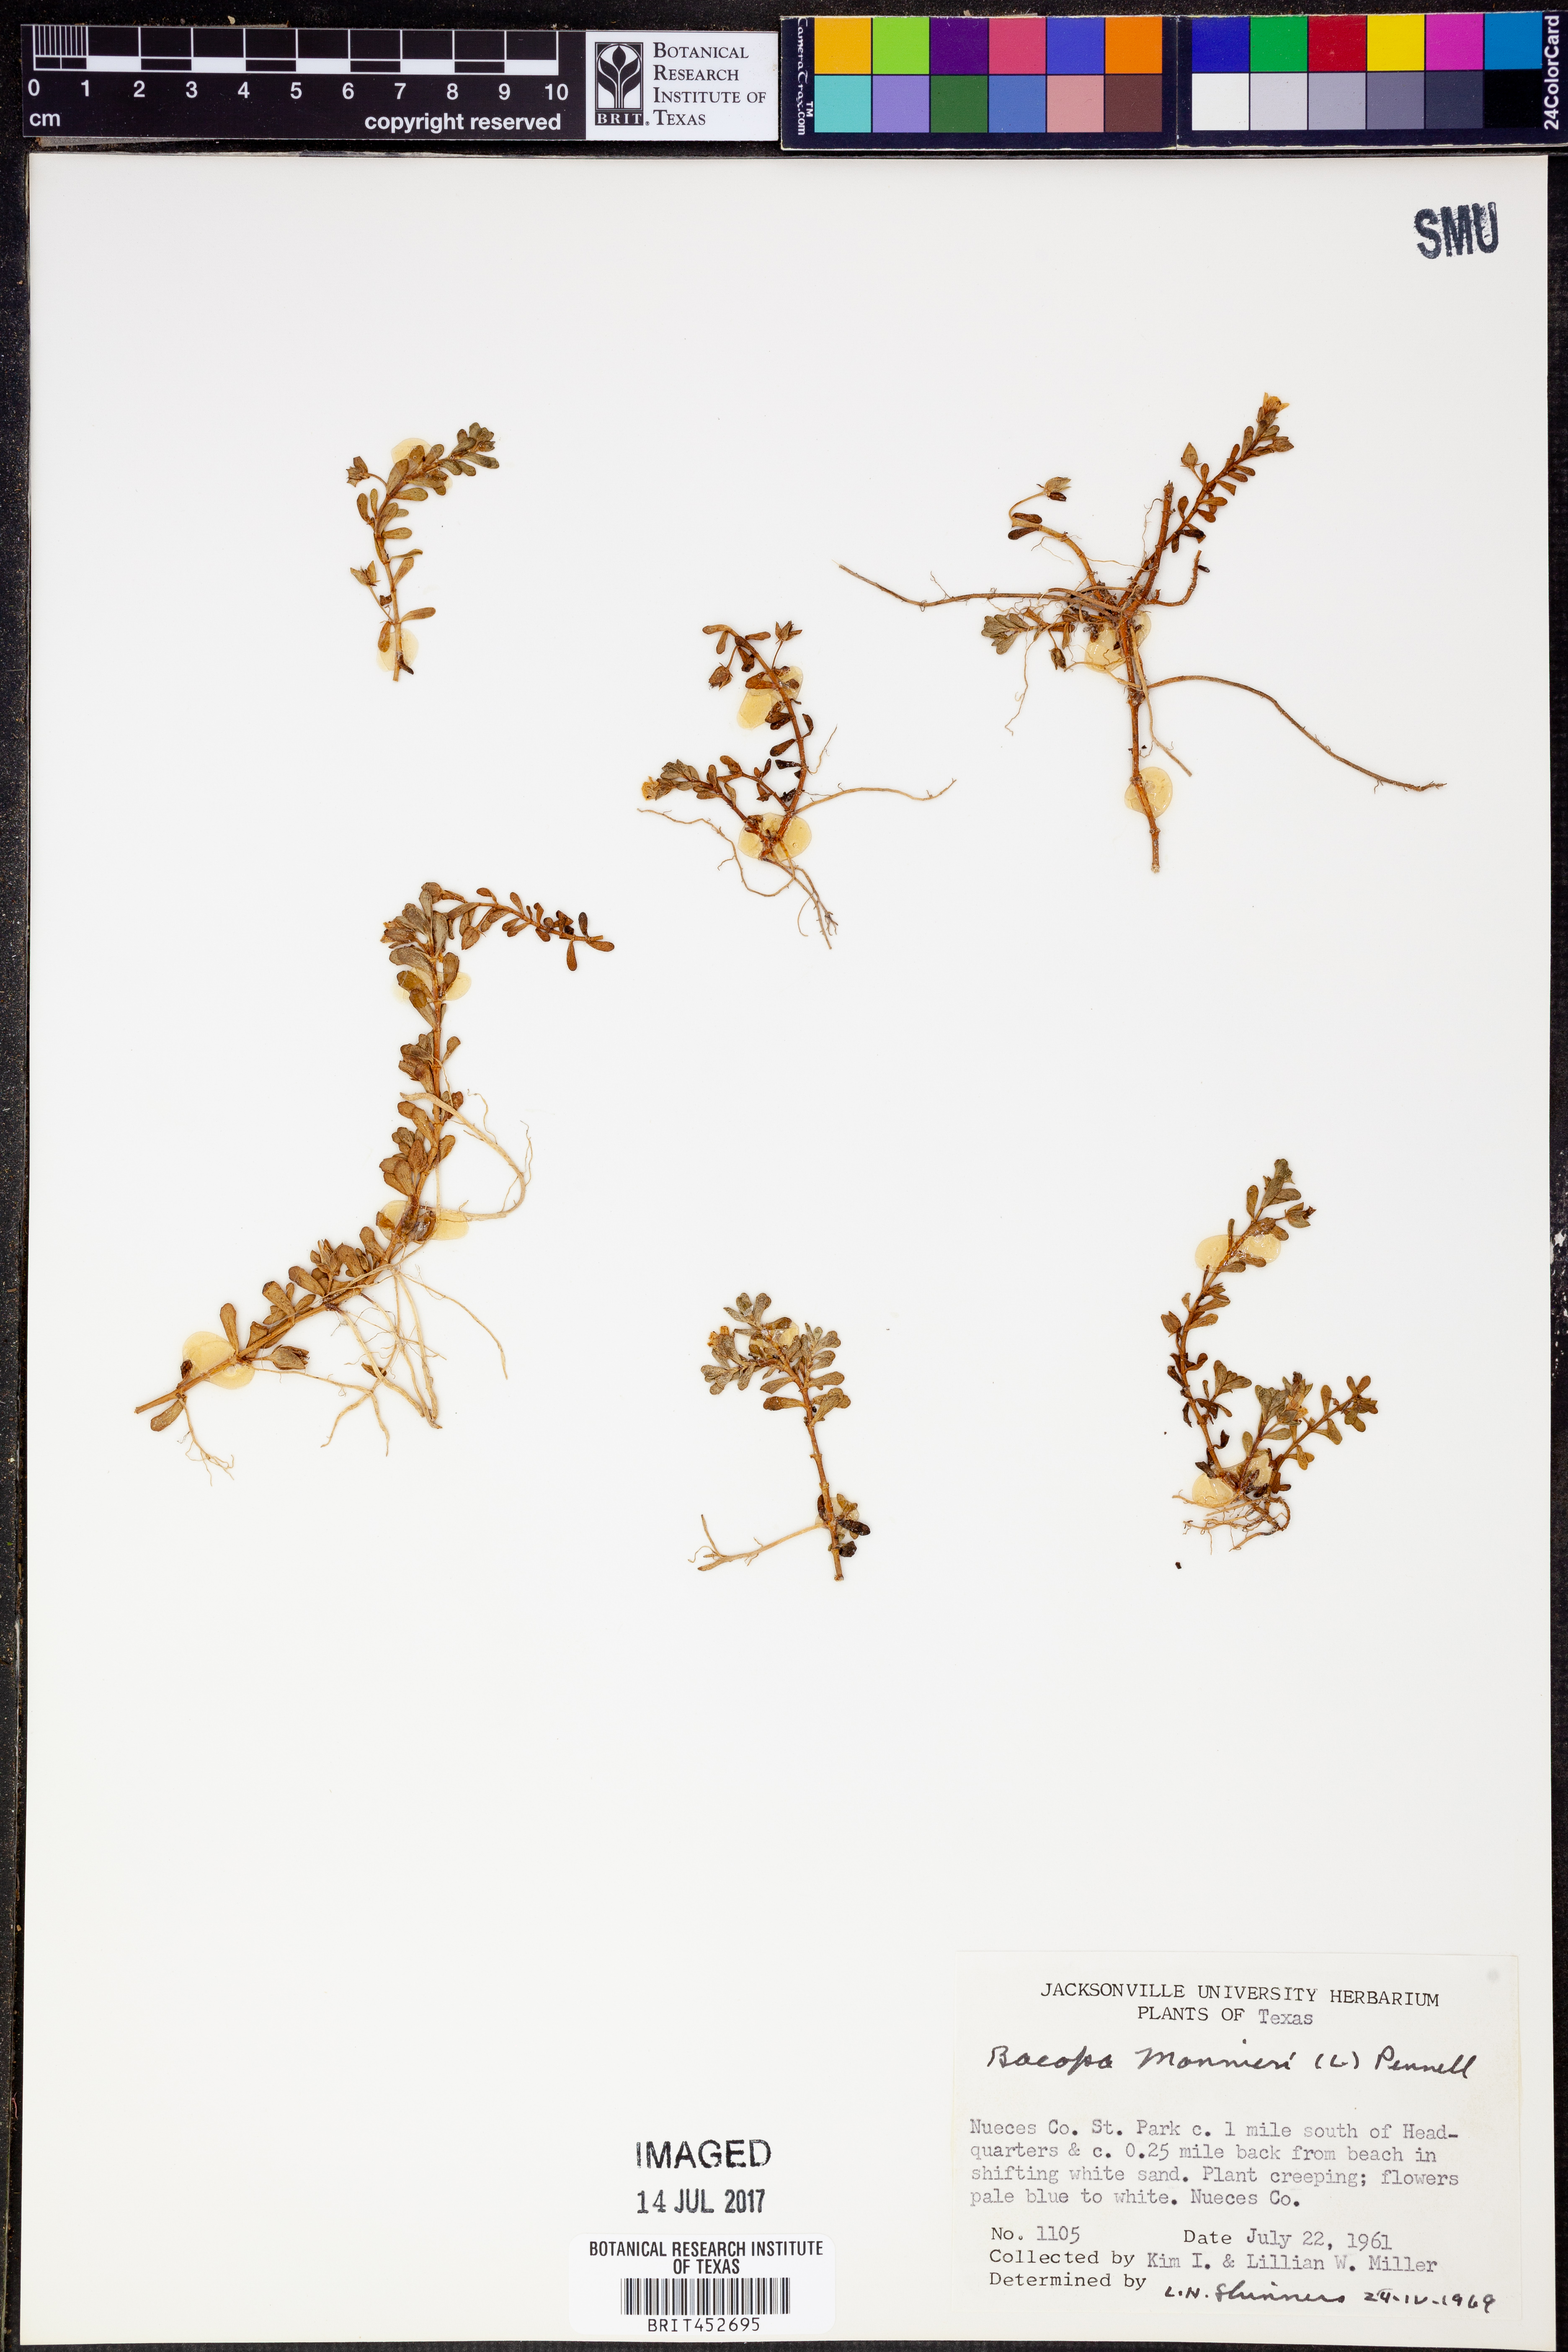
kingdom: Plantae
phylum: Tracheophyta
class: Magnoliopsida
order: Lamiales
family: Plantaginaceae
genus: Bacopa
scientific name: Bacopa monnieri
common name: Indian-pennywort
